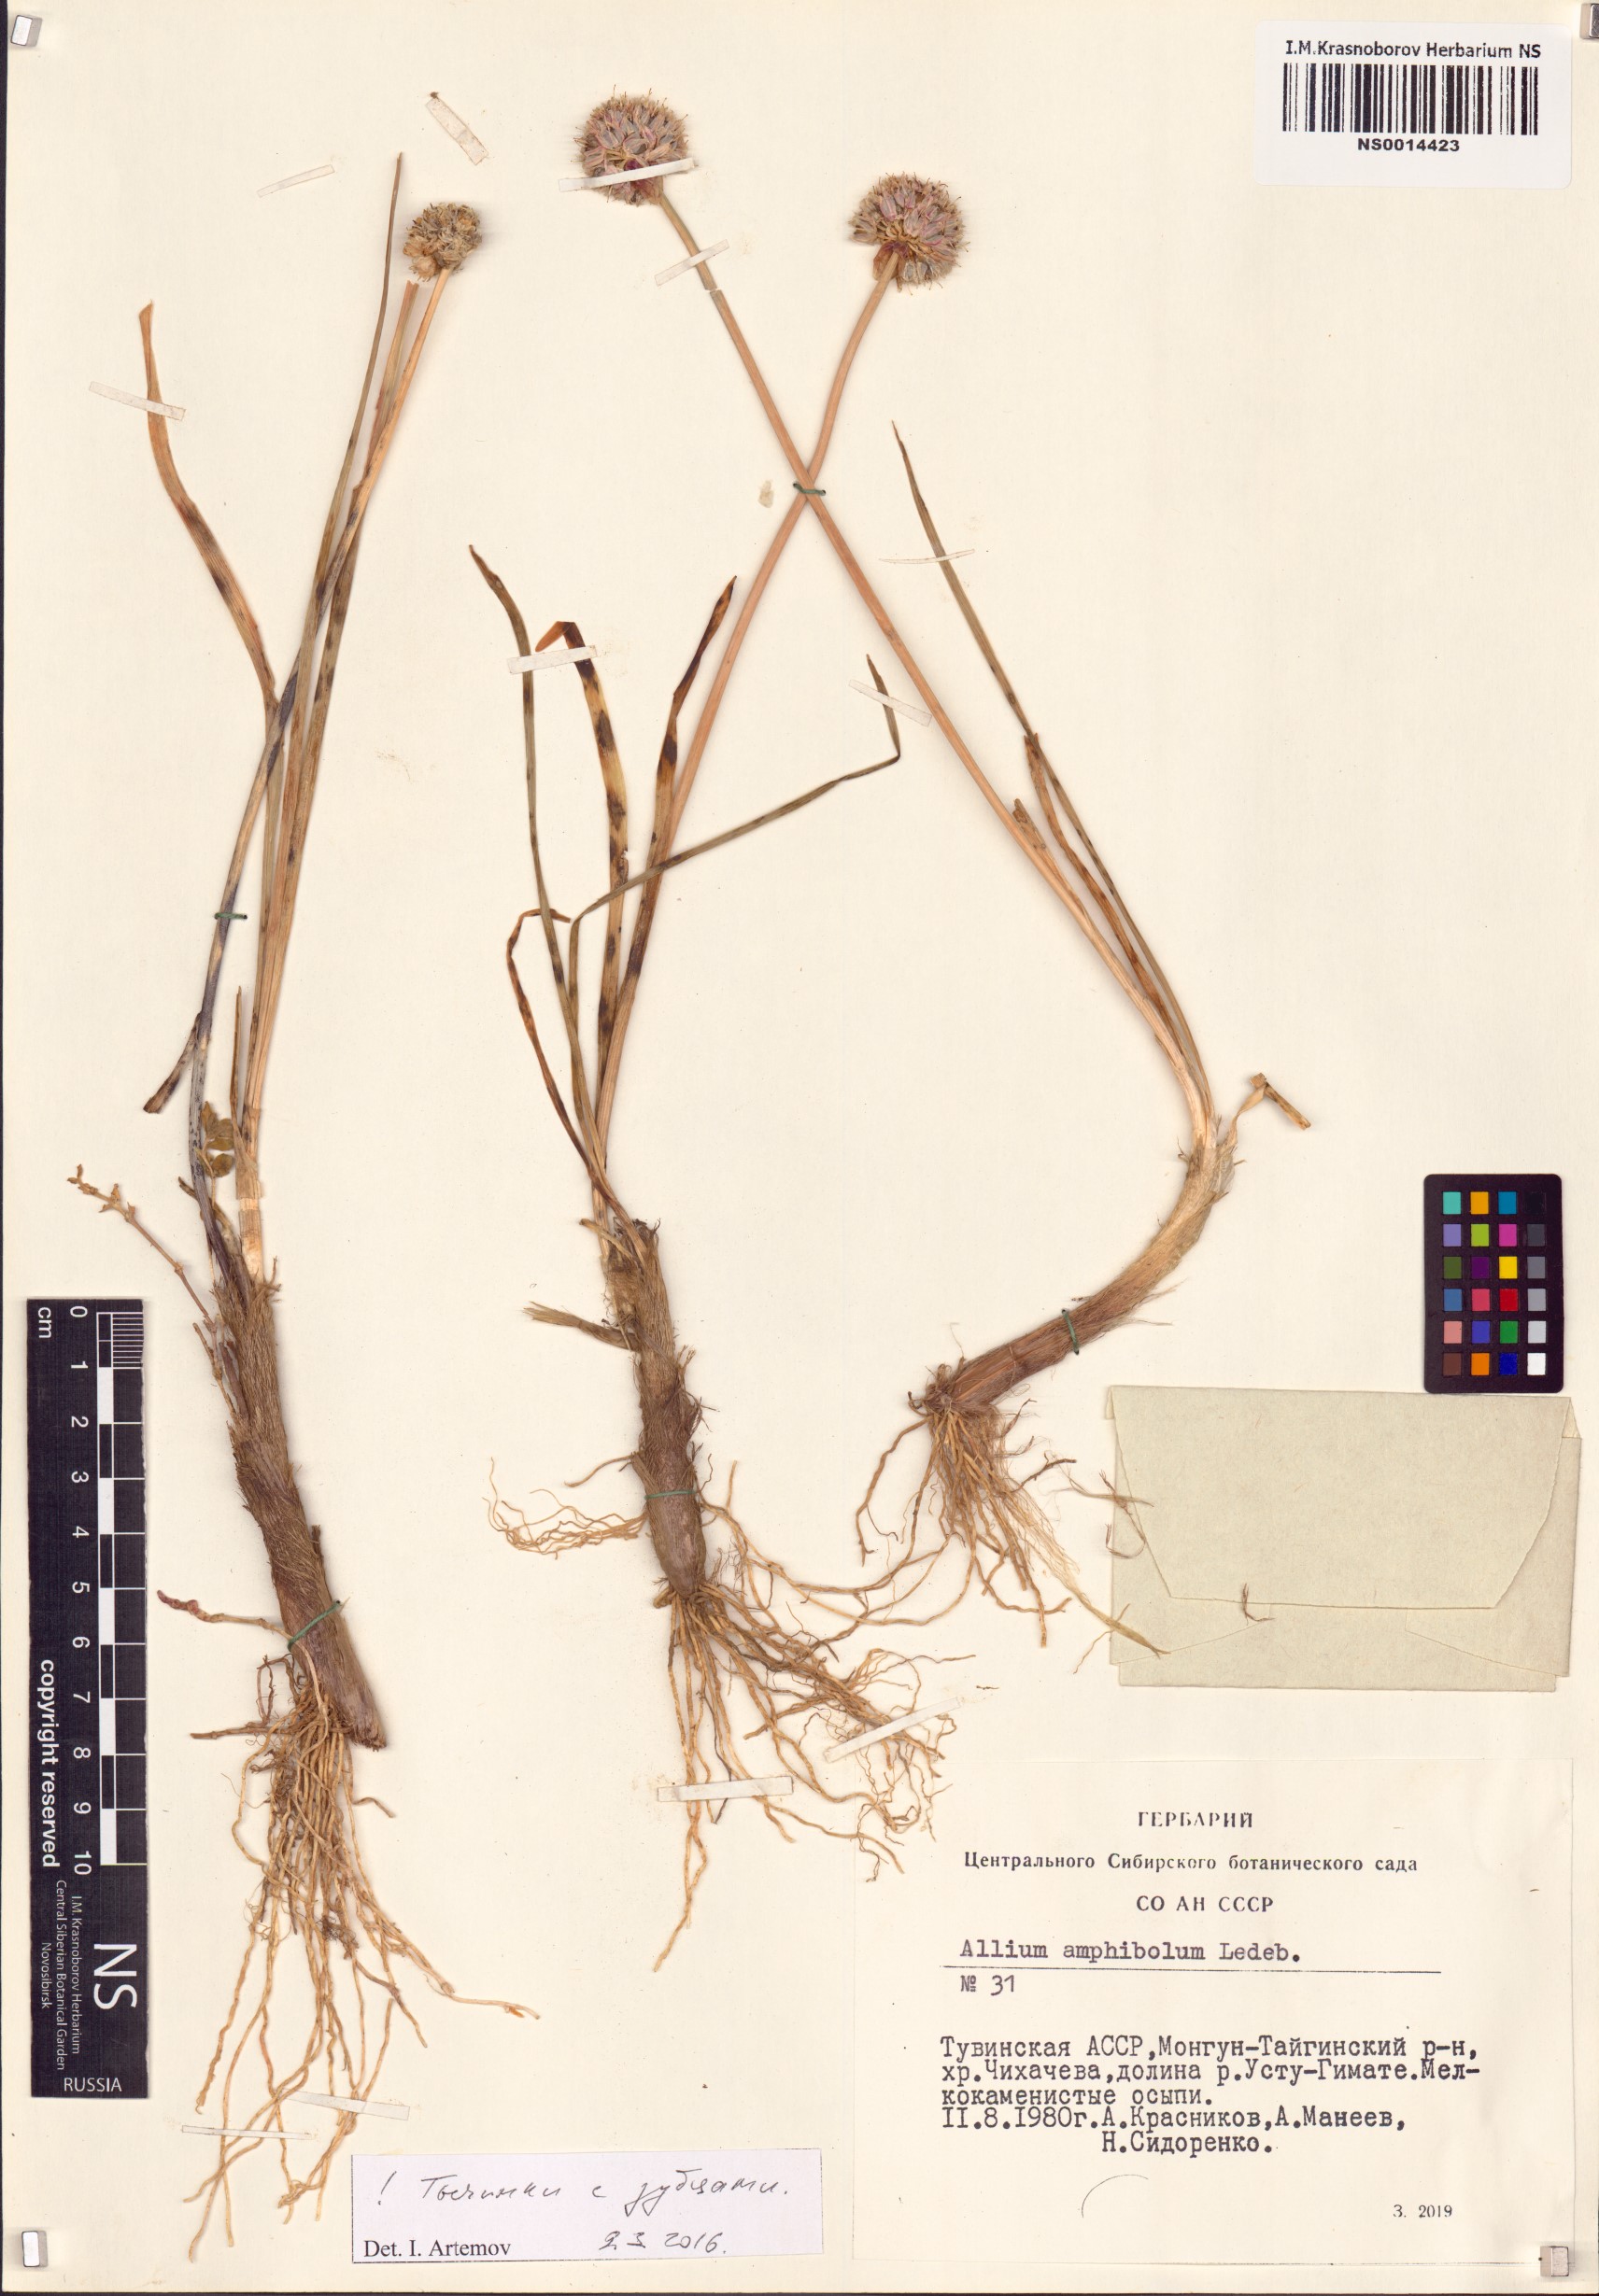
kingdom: Plantae
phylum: Tracheophyta
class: Liliopsida
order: Asparagales
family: Amaryllidaceae
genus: Allium
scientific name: Allium amphibolum
